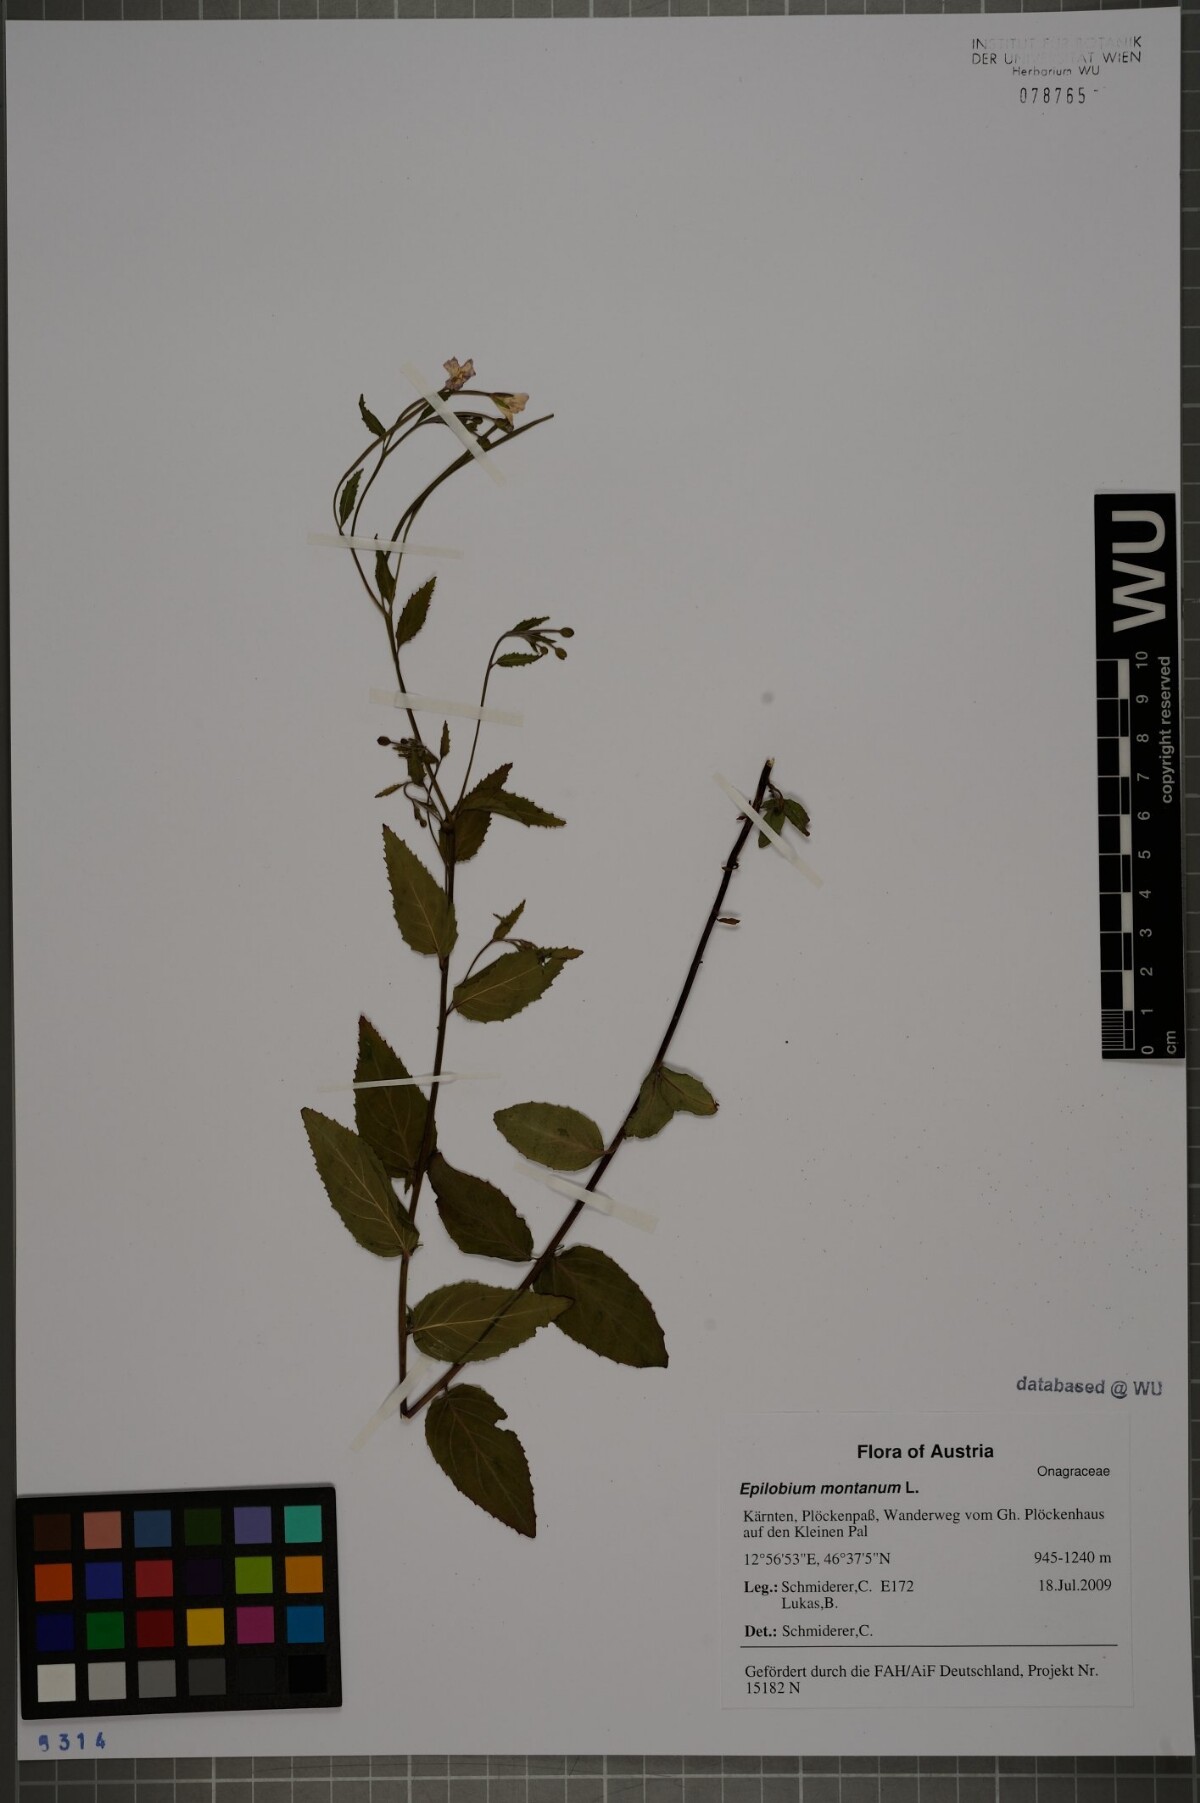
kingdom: Plantae
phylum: Tracheophyta
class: Magnoliopsida
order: Myrtales
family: Onagraceae
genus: Epilobium
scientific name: Epilobium montanum
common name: Broad-leaved willowherb
